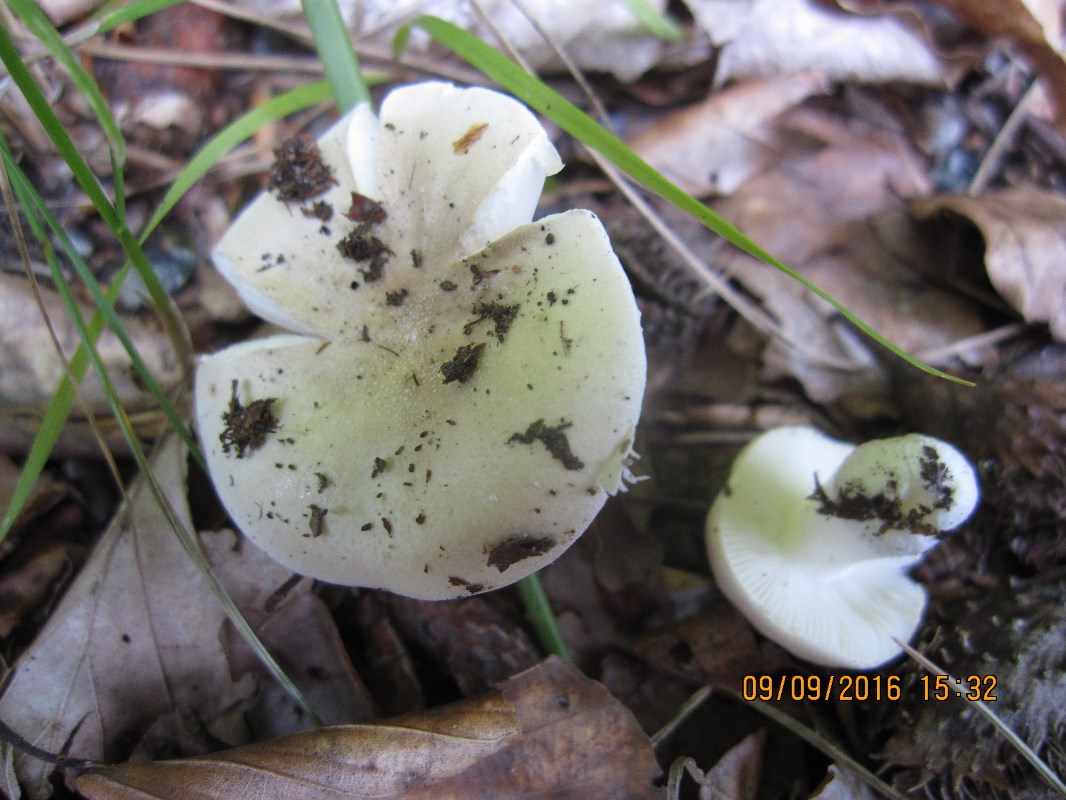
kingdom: Fungi
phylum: Basidiomycota
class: Agaricomycetes
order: Russulales
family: Russulaceae
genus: Russula
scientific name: Russula roseoaurantia
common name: kornet skørhat
